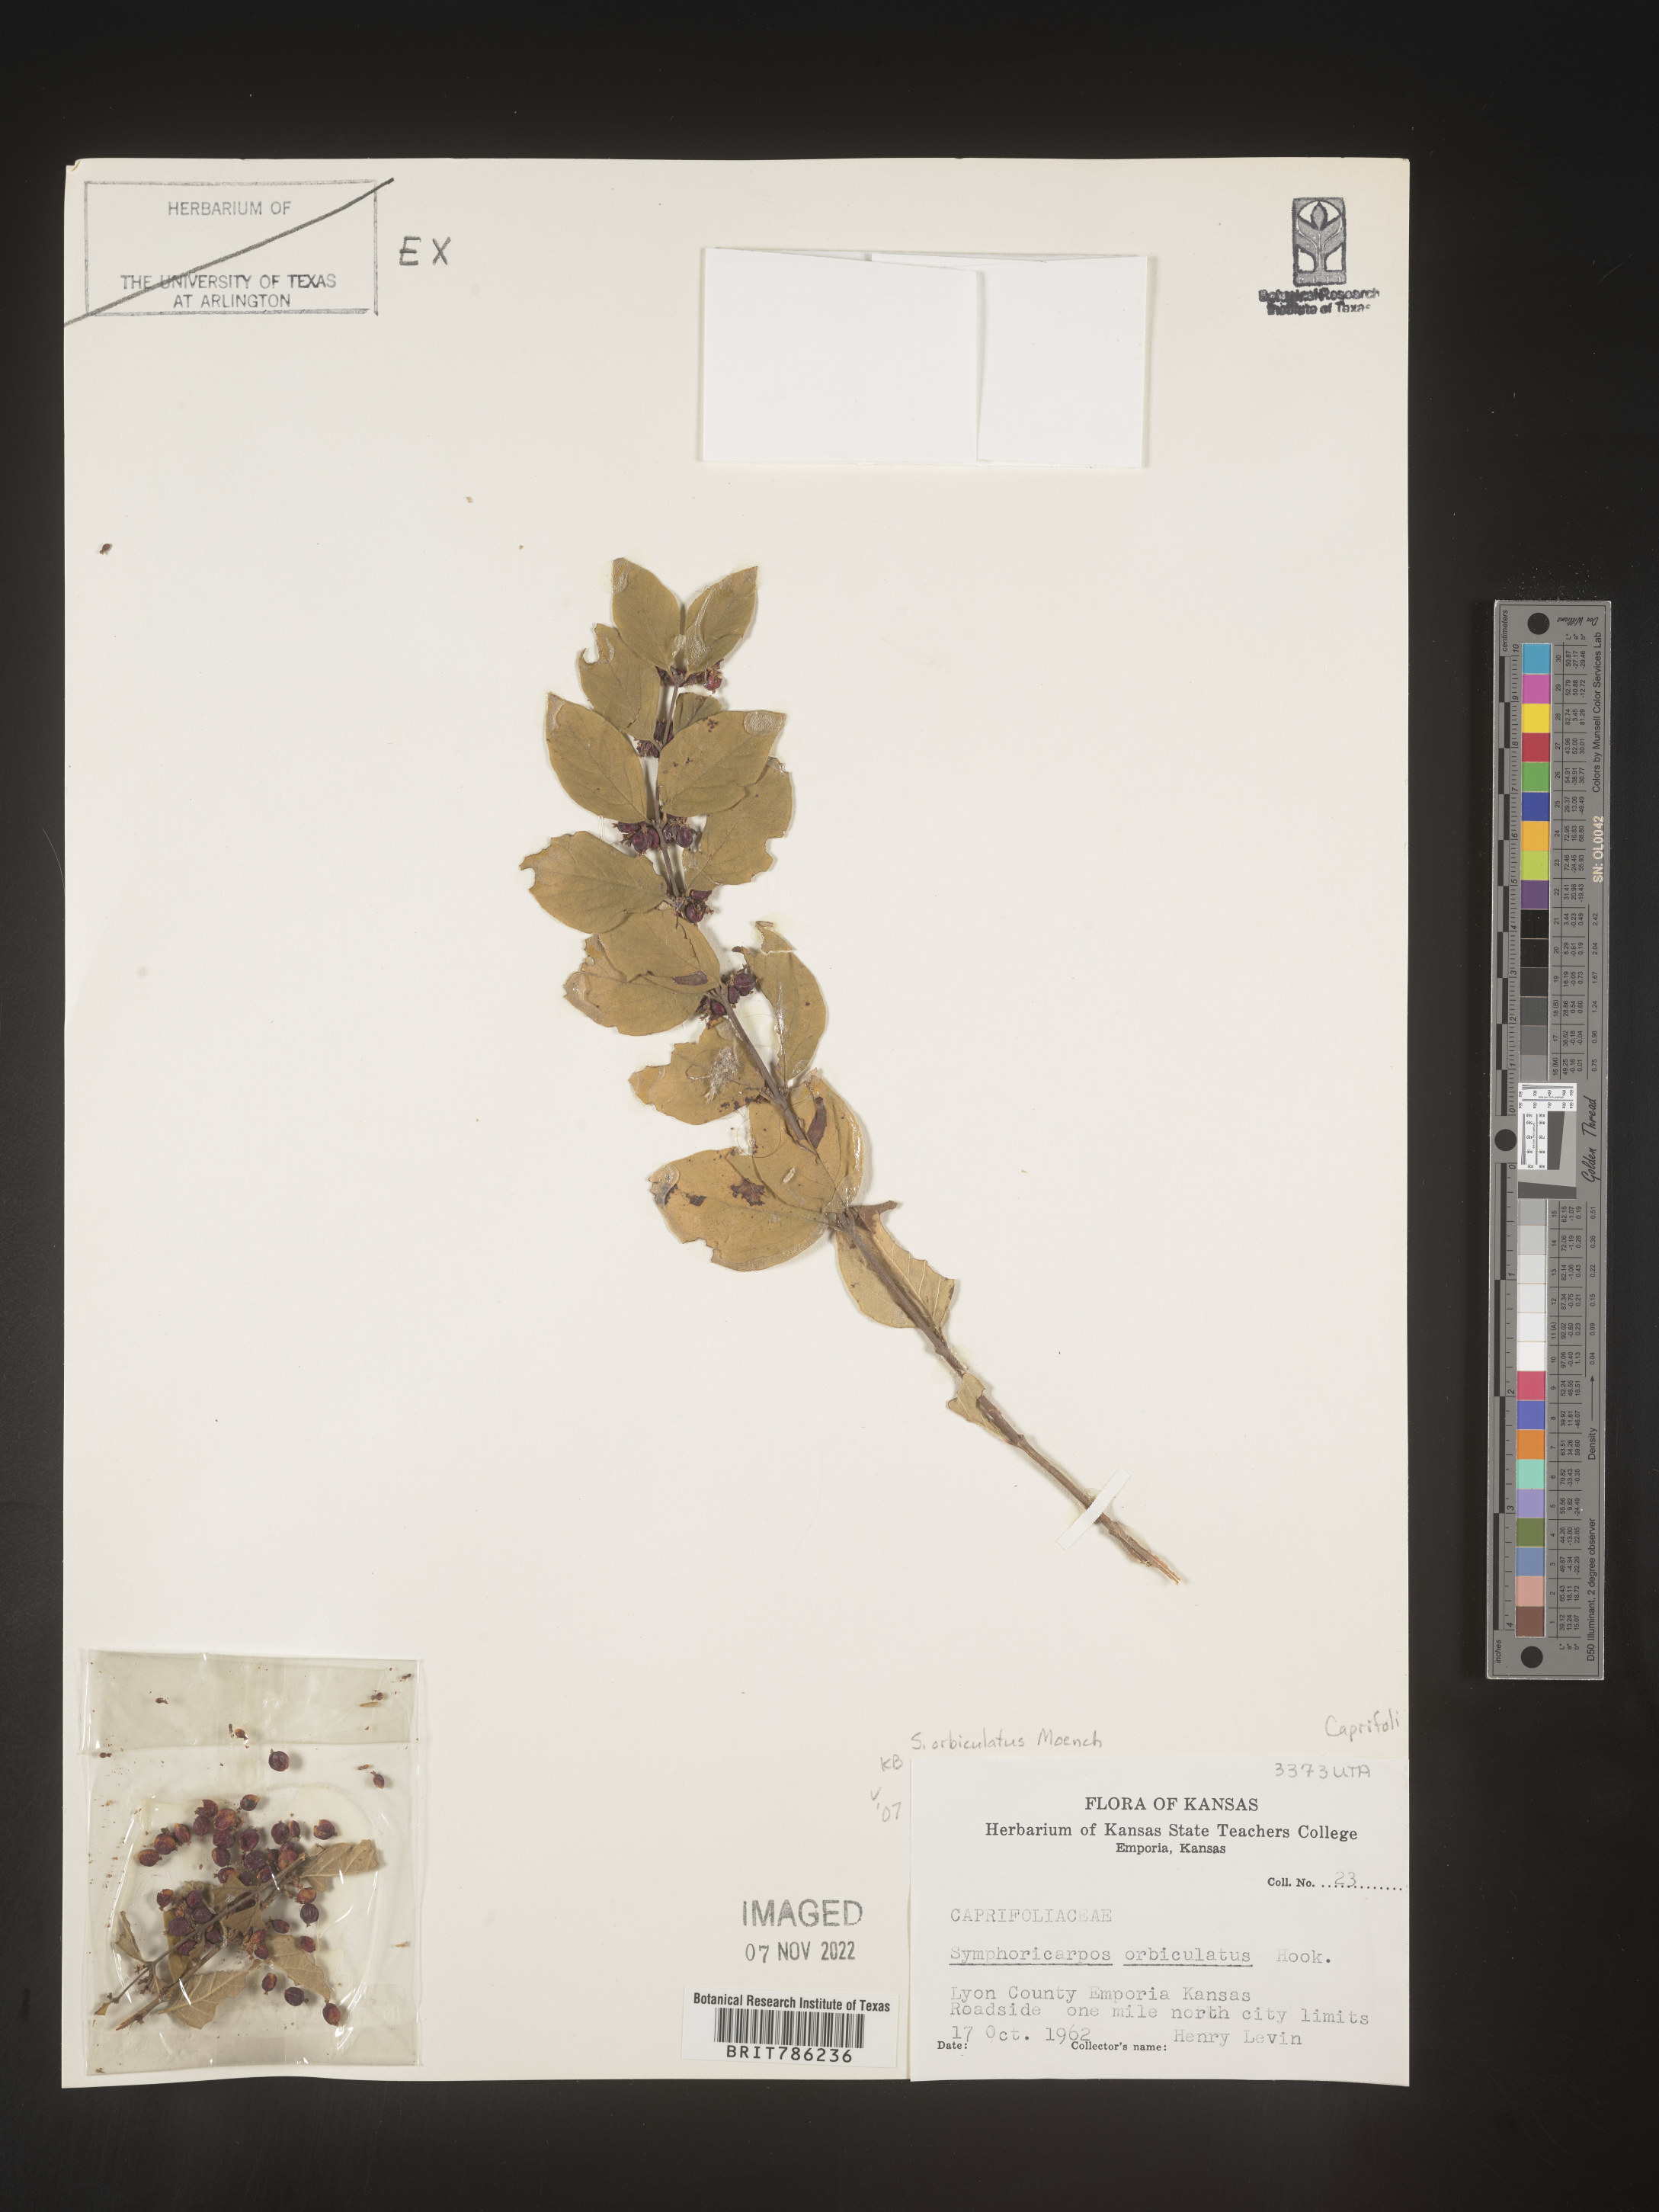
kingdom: Plantae
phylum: Tracheophyta
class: Magnoliopsida
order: Dipsacales
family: Caprifoliaceae
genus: Symphoricarpos
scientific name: Symphoricarpos orbiculatus
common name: Coralberry
